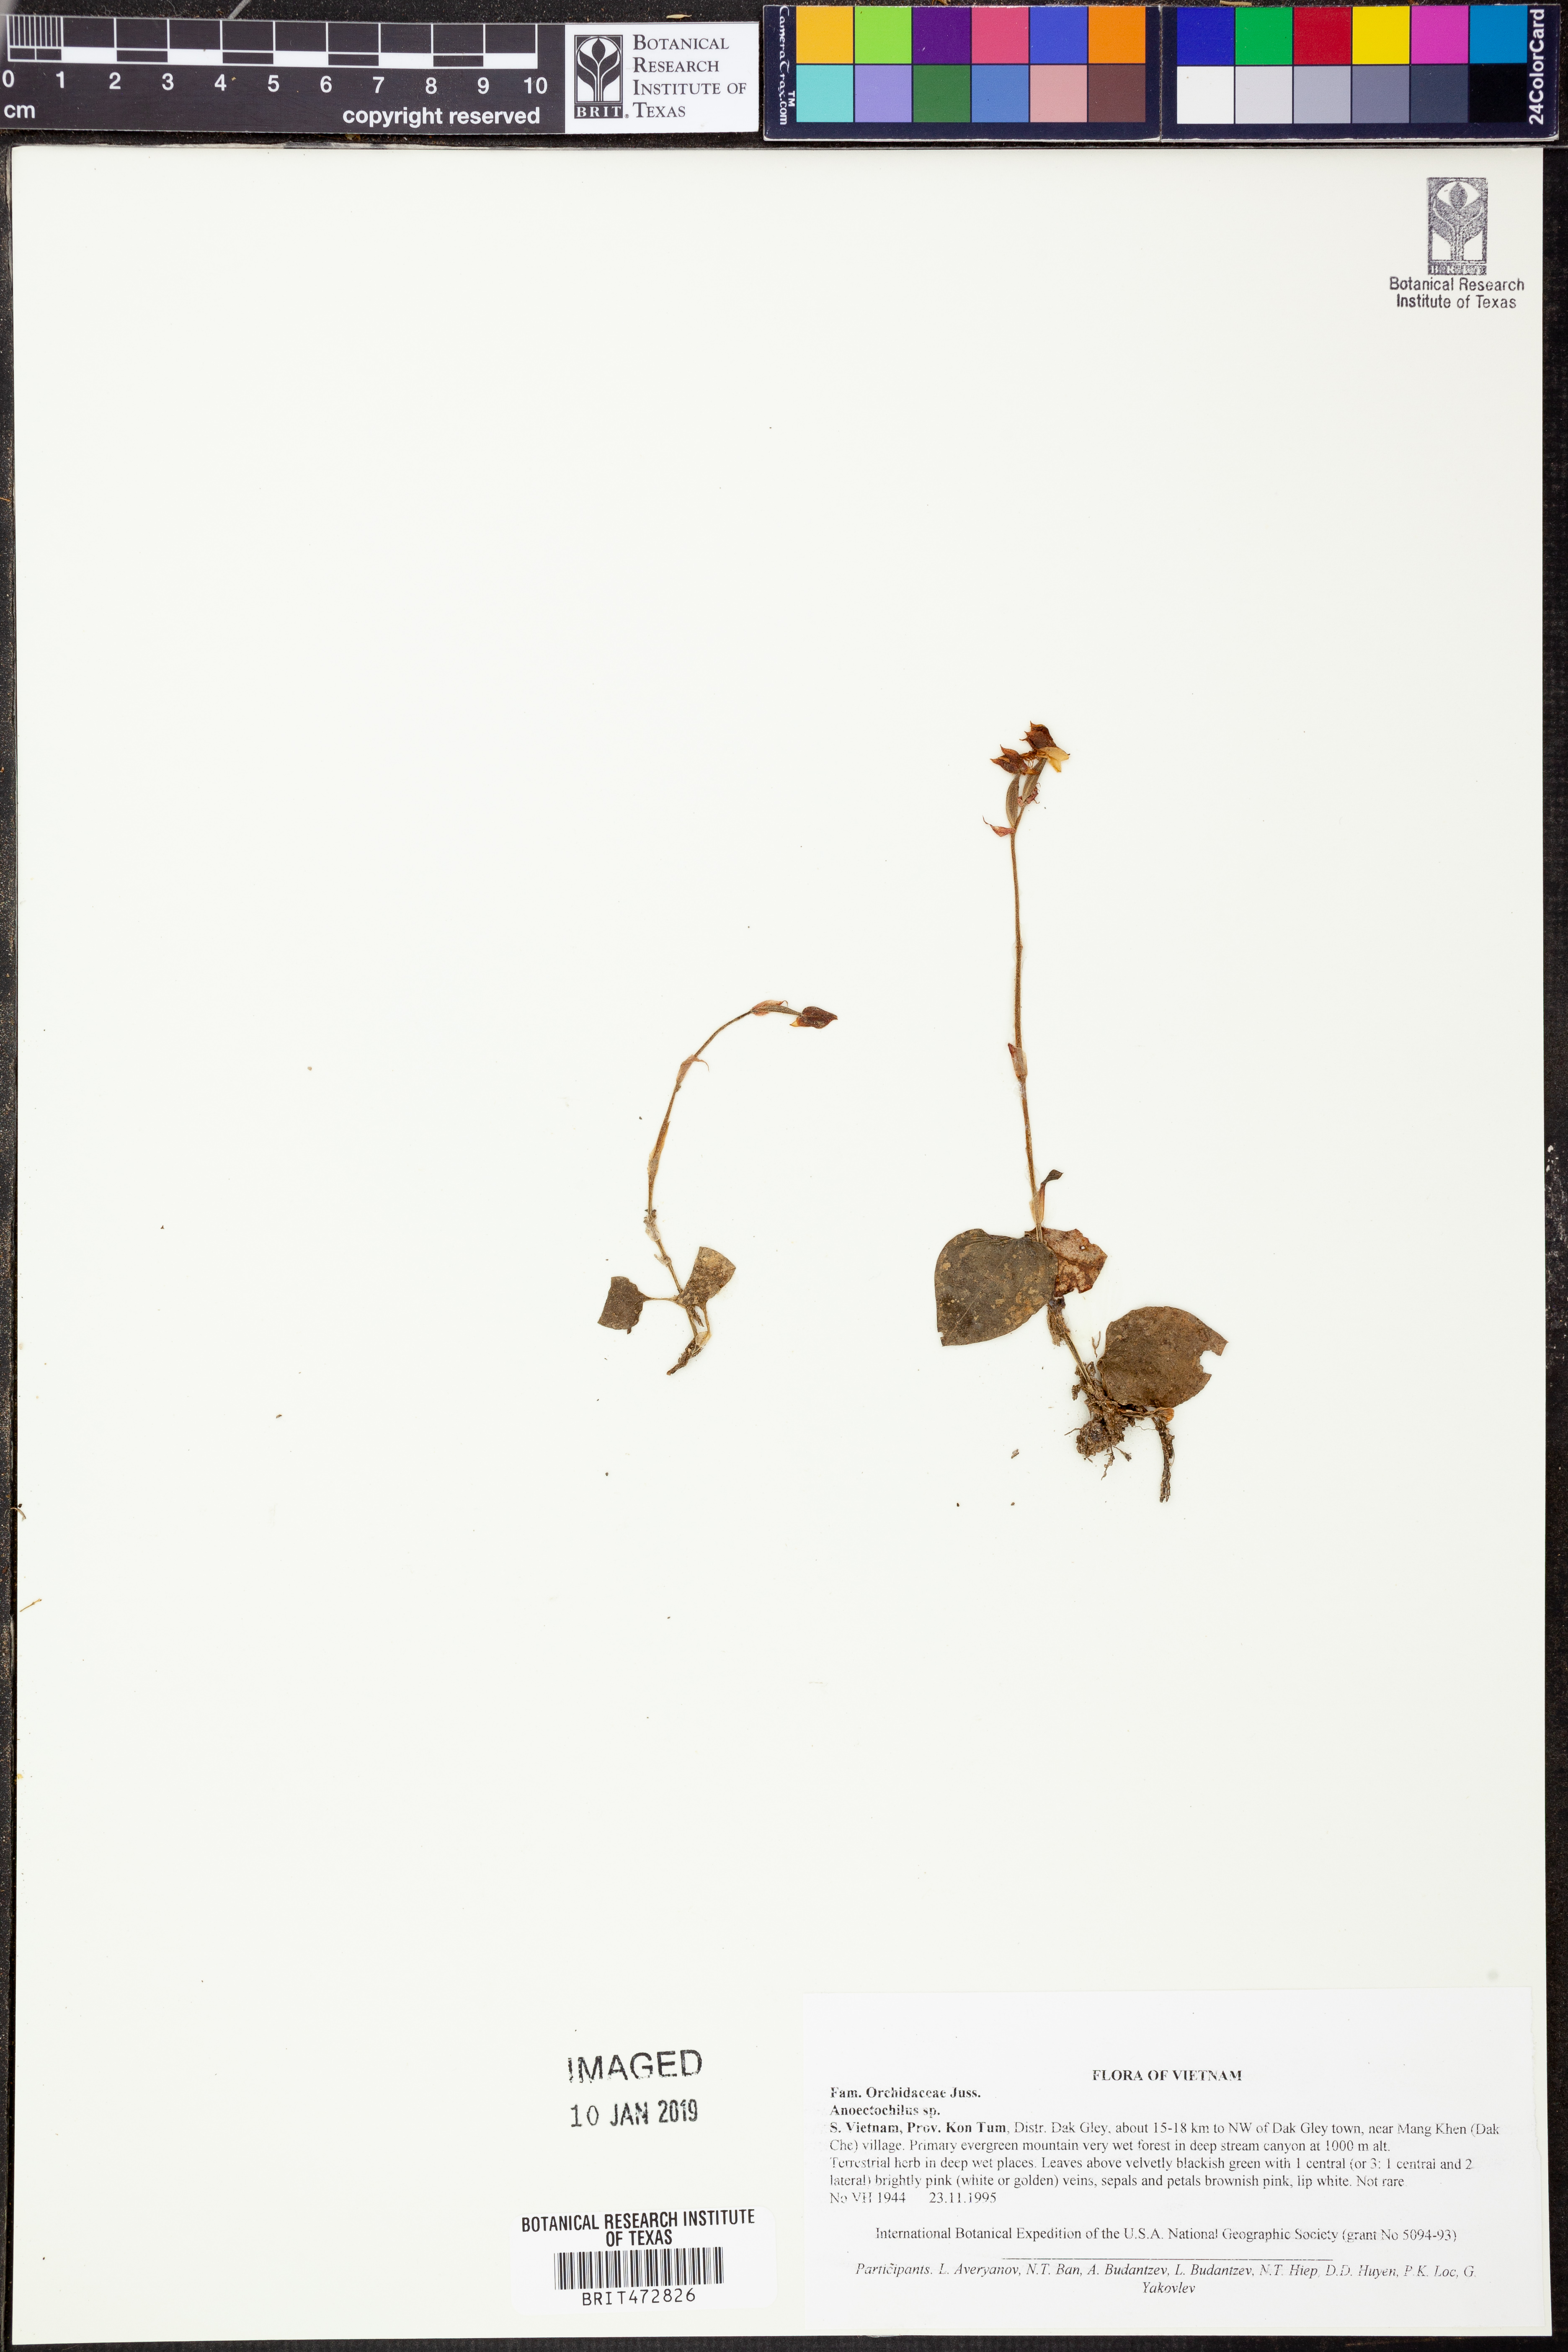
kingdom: Plantae
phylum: Tracheophyta
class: Liliopsida
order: Asparagales
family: Orchidaceae
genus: Anoectochilus
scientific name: Anoectochilus
